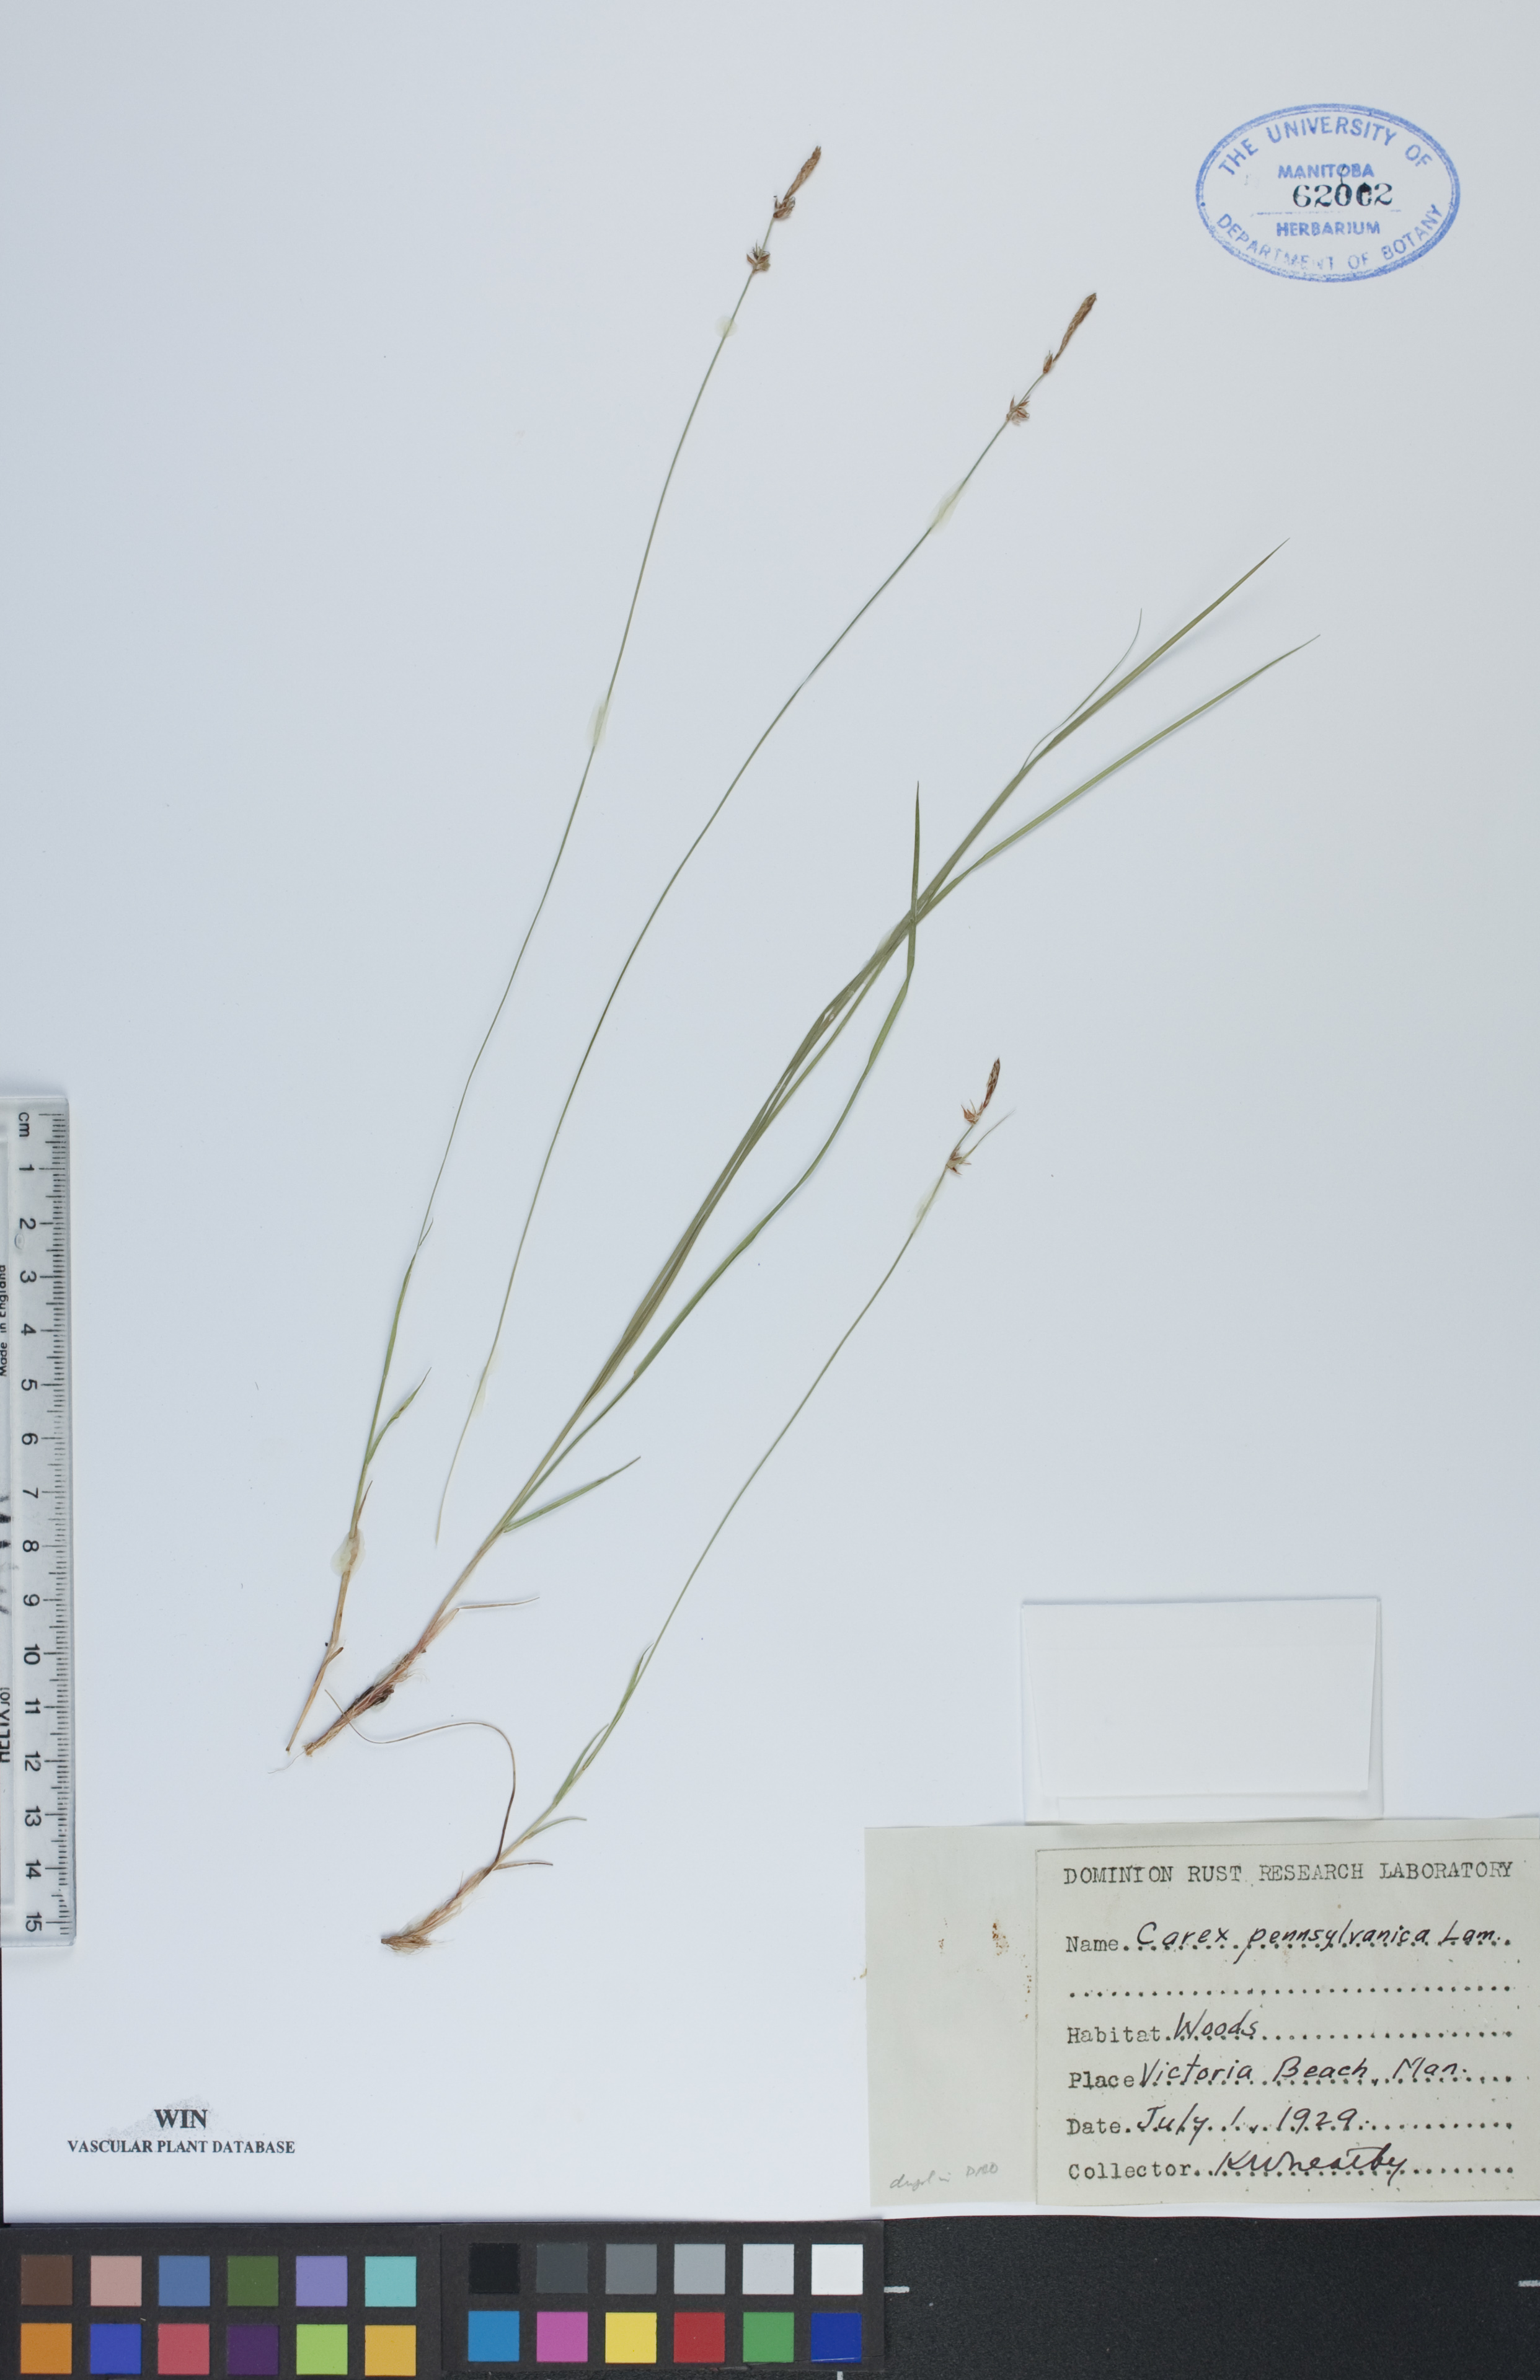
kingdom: Plantae
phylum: Tracheophyta
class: Liliopsida
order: Poales
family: Cyperaceae
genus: Carex
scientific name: Carex pensylvanica
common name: Common oak sedge
